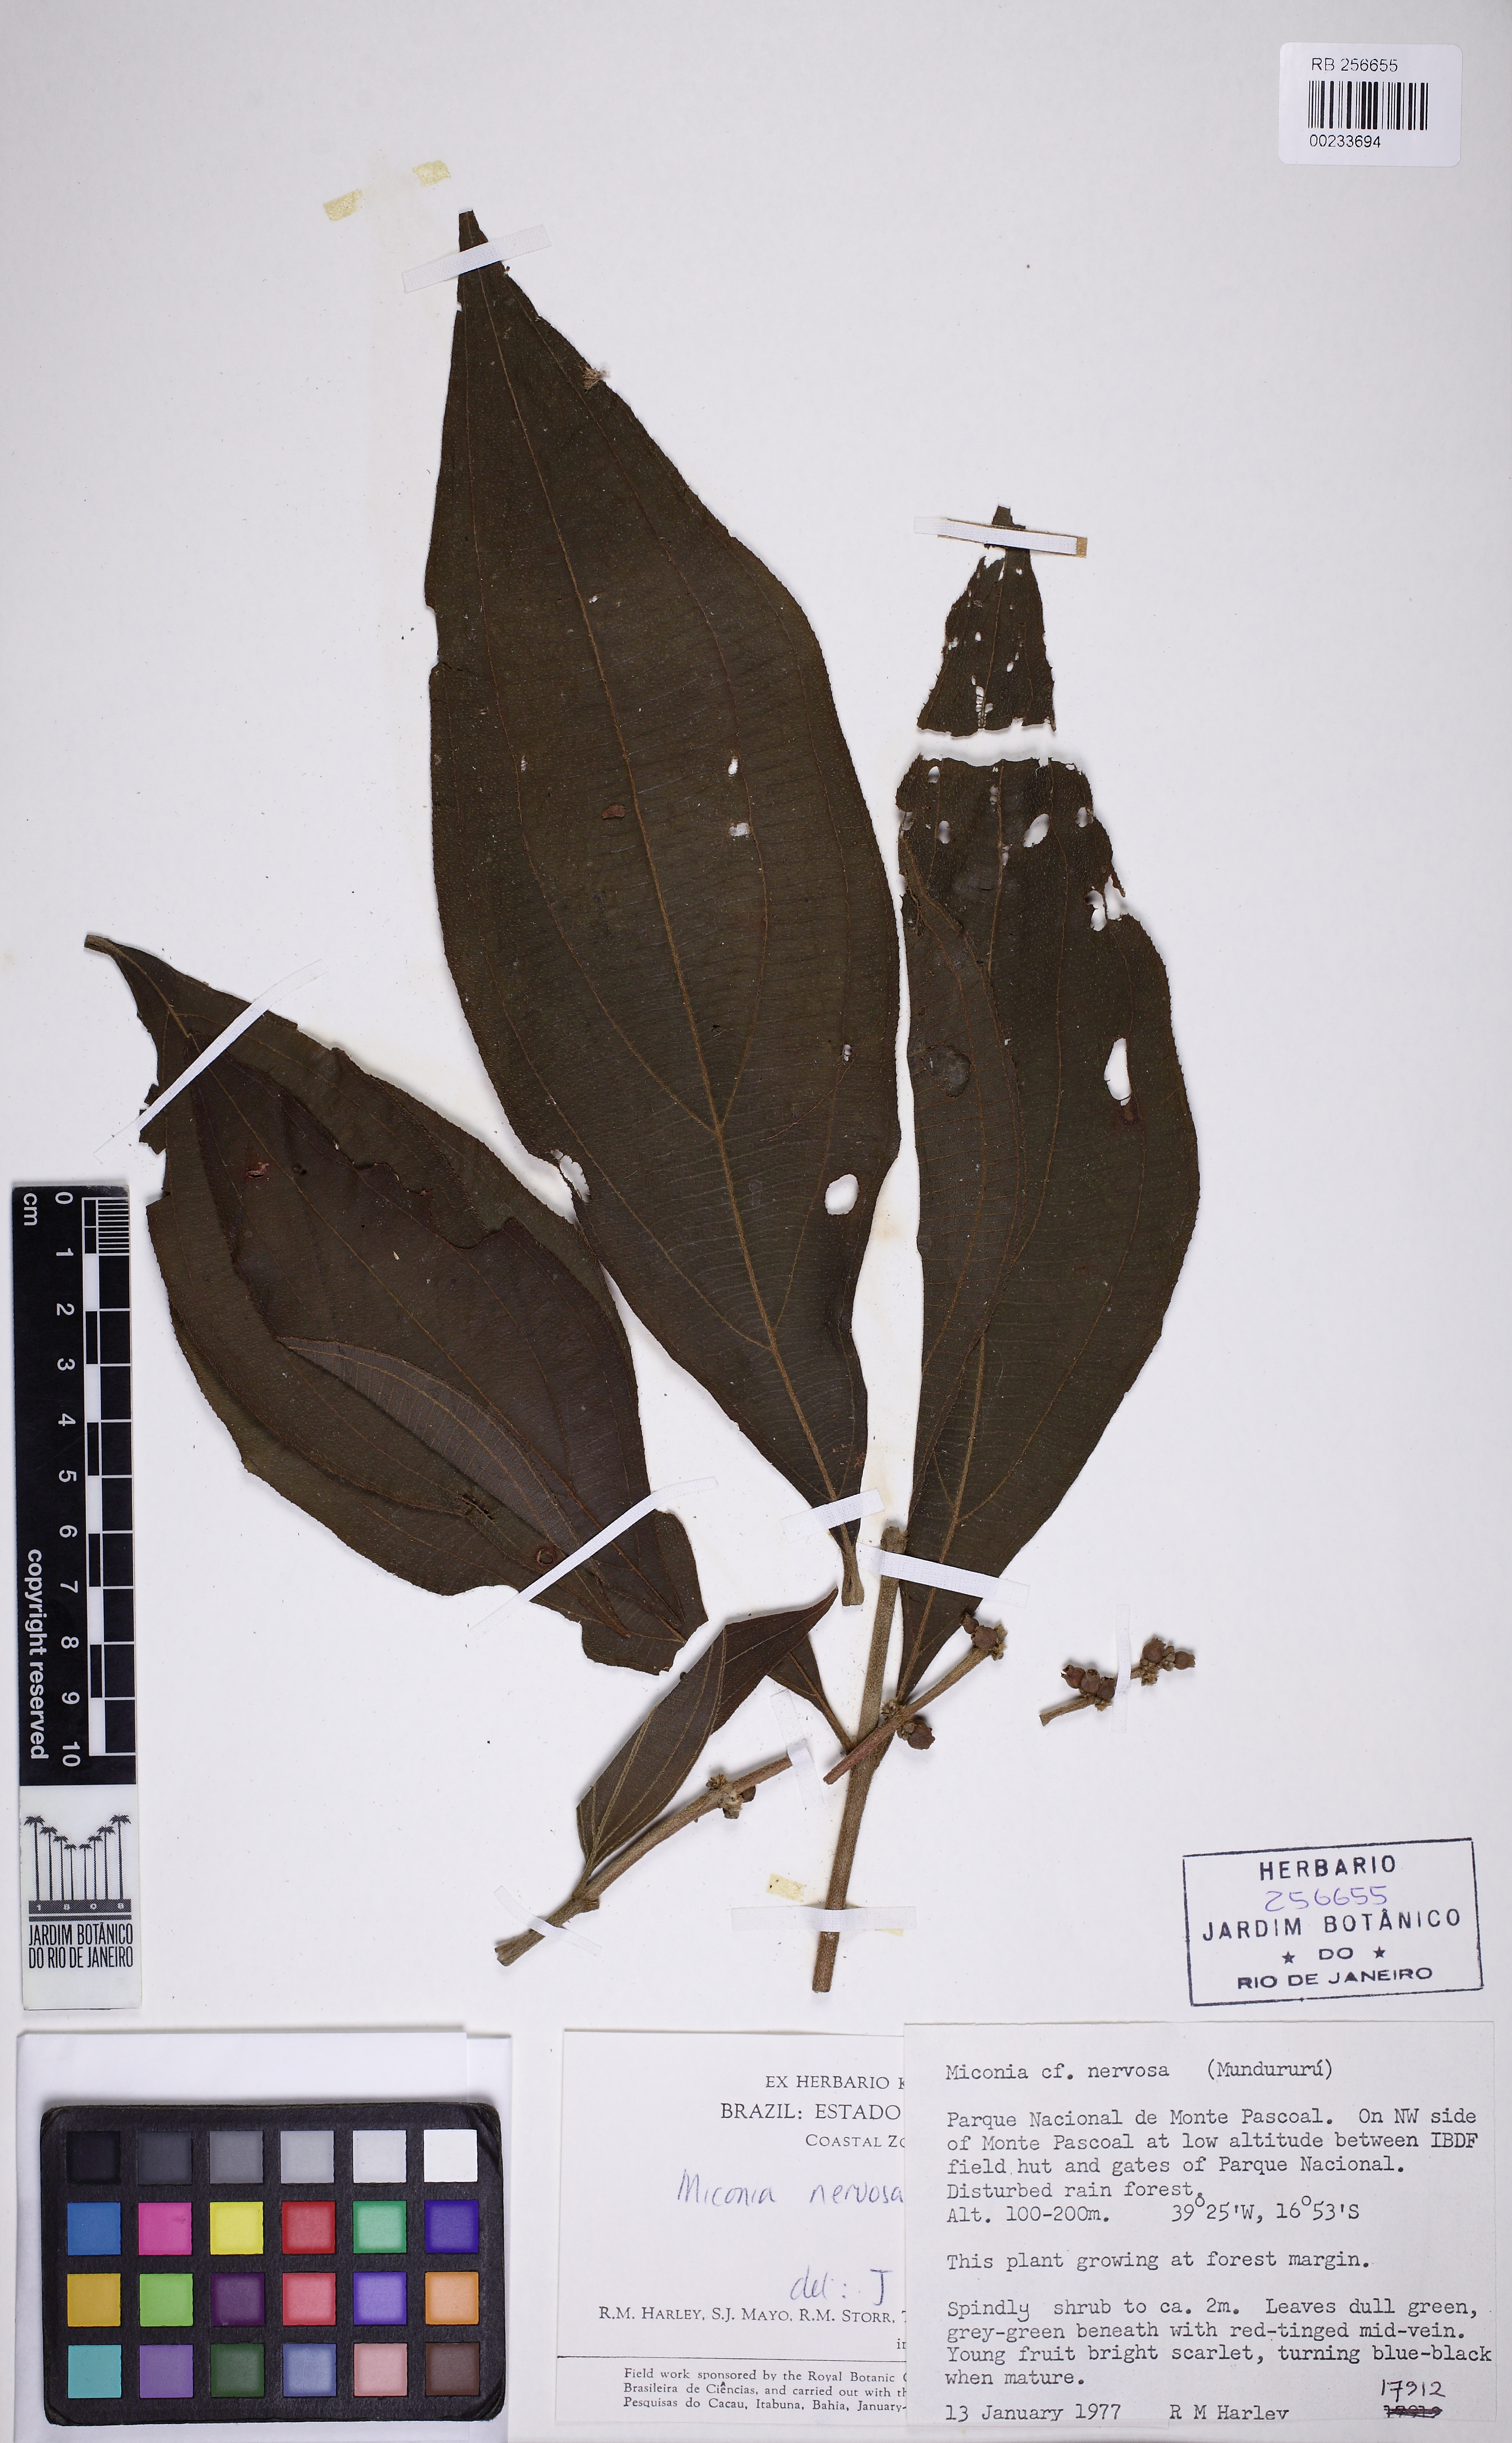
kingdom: Plantae
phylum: Tracheophyta
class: Magnoliopsida
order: Myrtales
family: Melastomataceae
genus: Miconia
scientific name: Miconia nervosa
